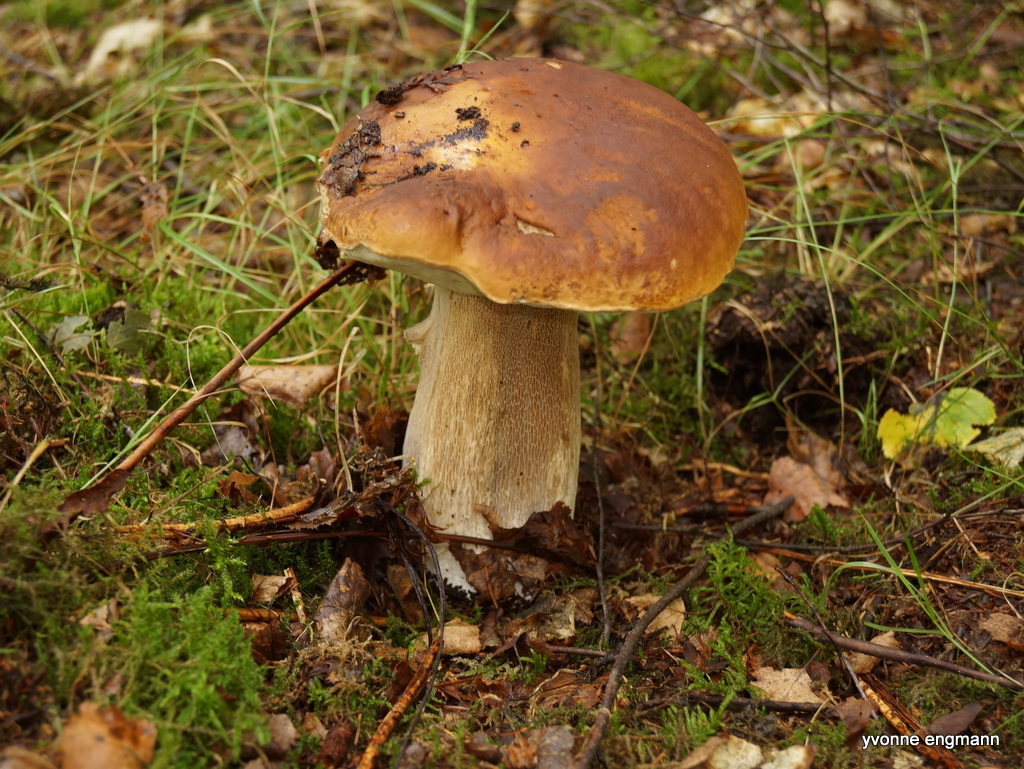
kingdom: Fungi
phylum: Basidiomycota
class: Agaricomycetes
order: Boletales
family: Boletaceae
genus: Boletus
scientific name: Boletus edulis
